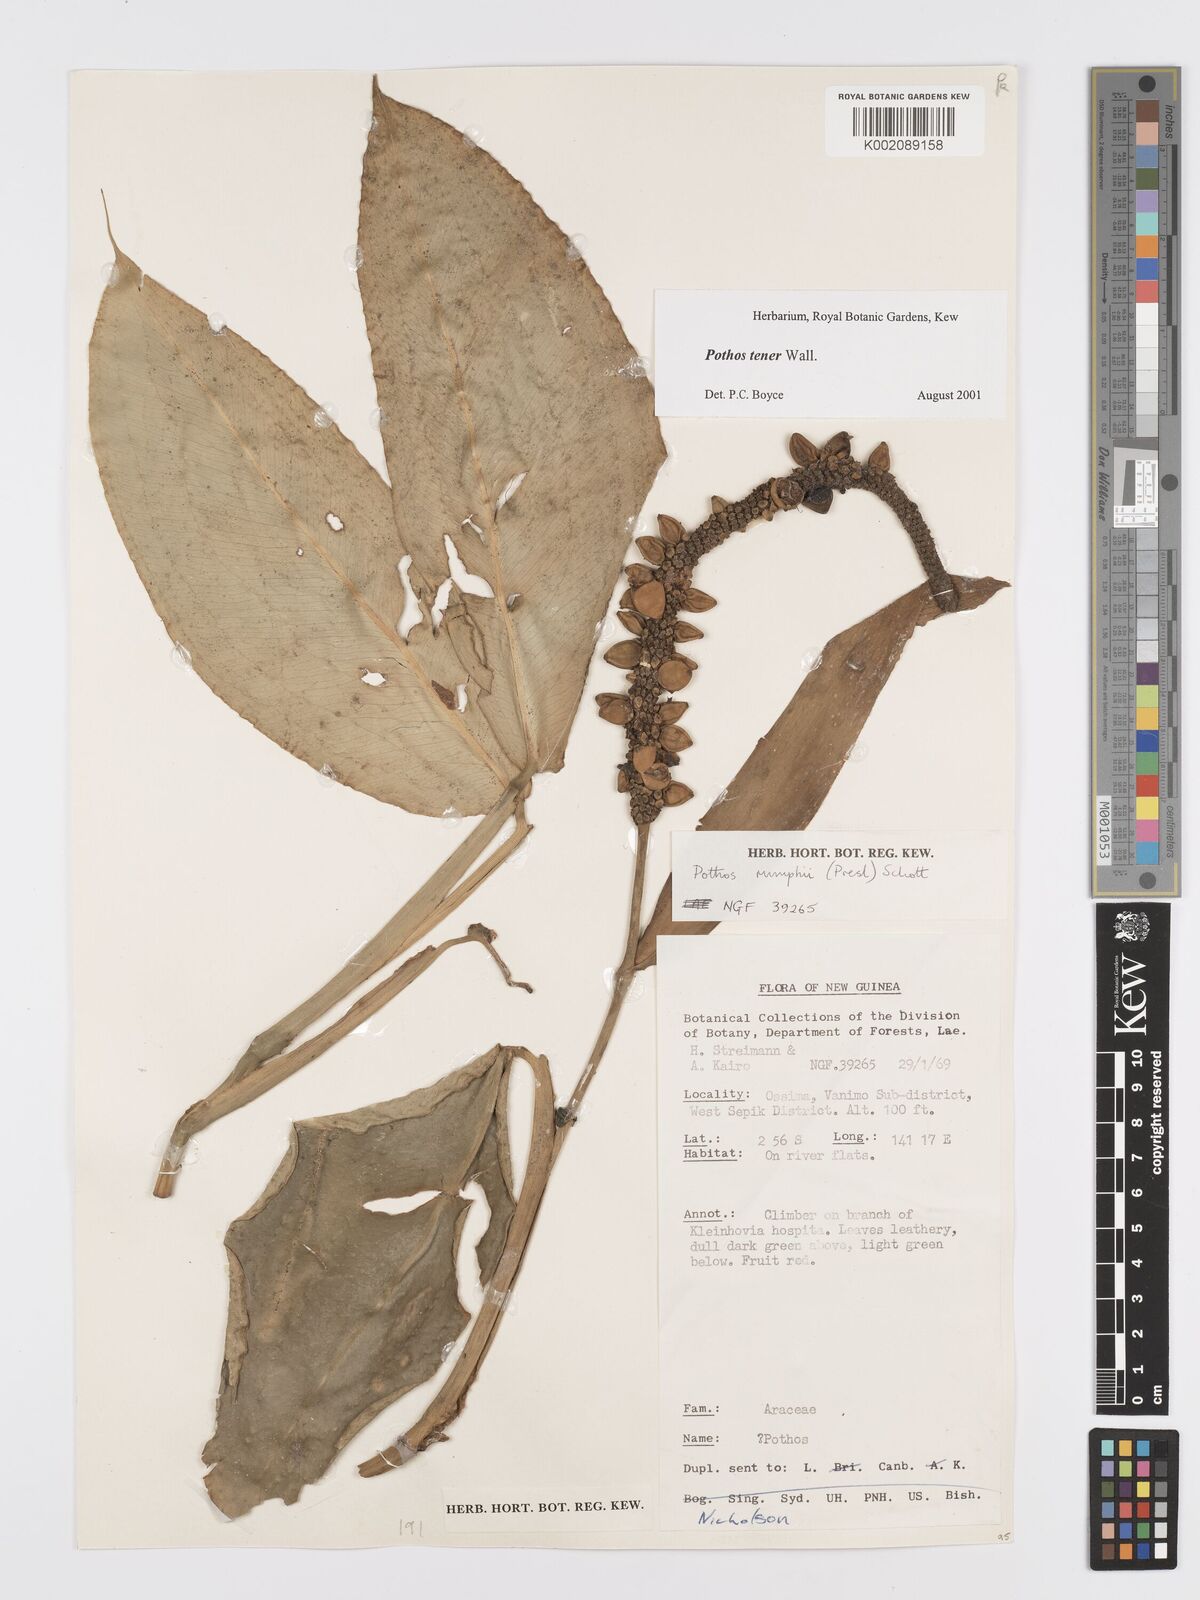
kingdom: Plantae
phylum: Tracheophyta
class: Liliopsida
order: Alismatales
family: Araceae
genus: Pothos
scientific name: Pothos tener
